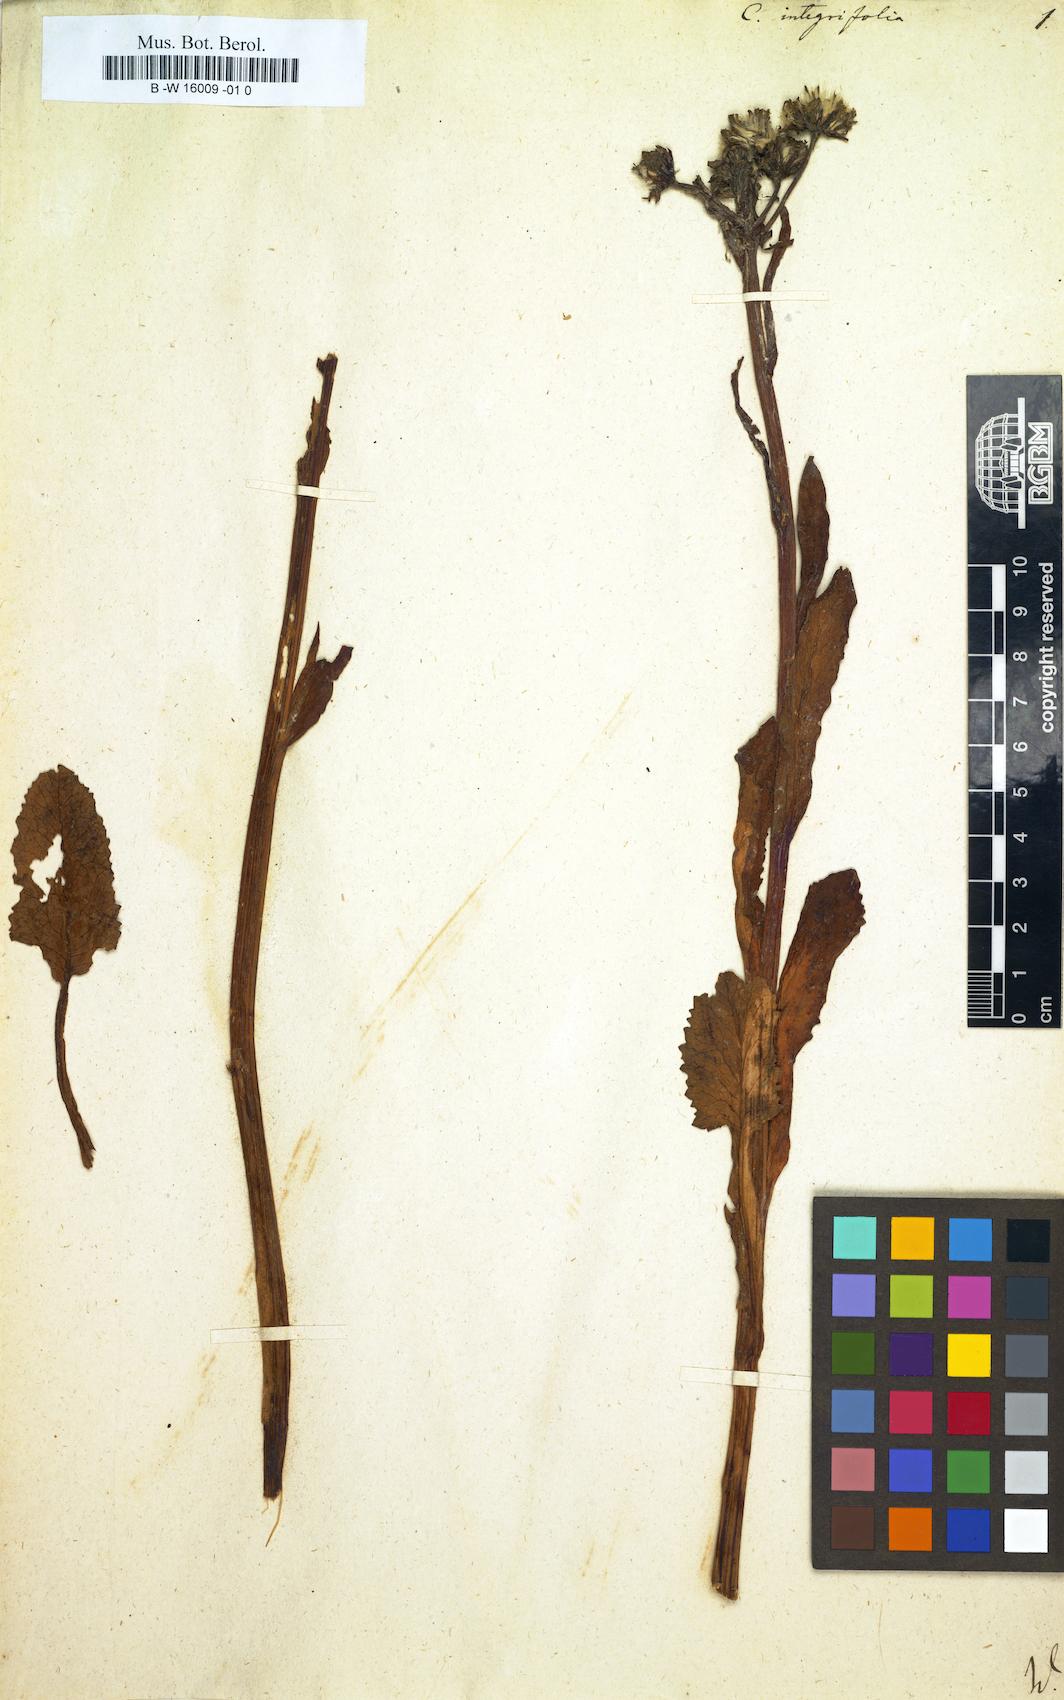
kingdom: Plantae
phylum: Tracheophyta
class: Magnoliopsida
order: Asterales
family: Asteraceae
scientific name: Asteraceae
